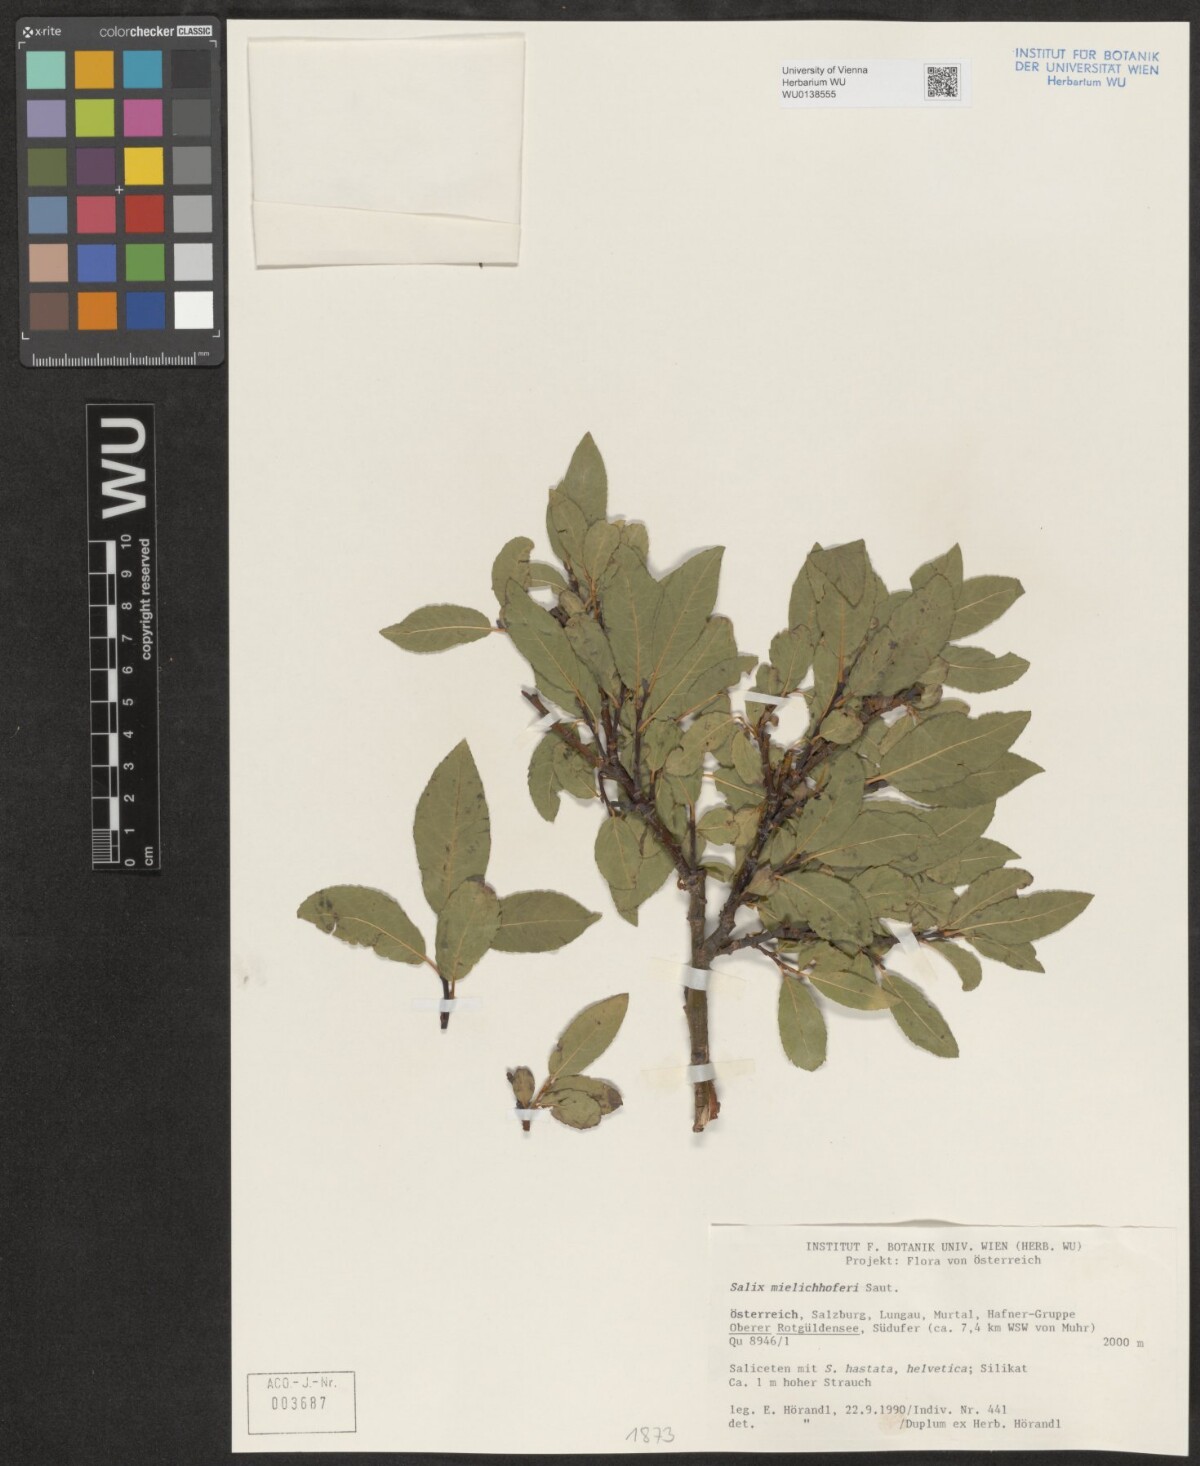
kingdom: Plantae
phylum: Tracheophyta
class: Magnoliopsida
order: Malpighiales
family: Salicaceae
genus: Salix
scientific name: Salix mielichhoferi
